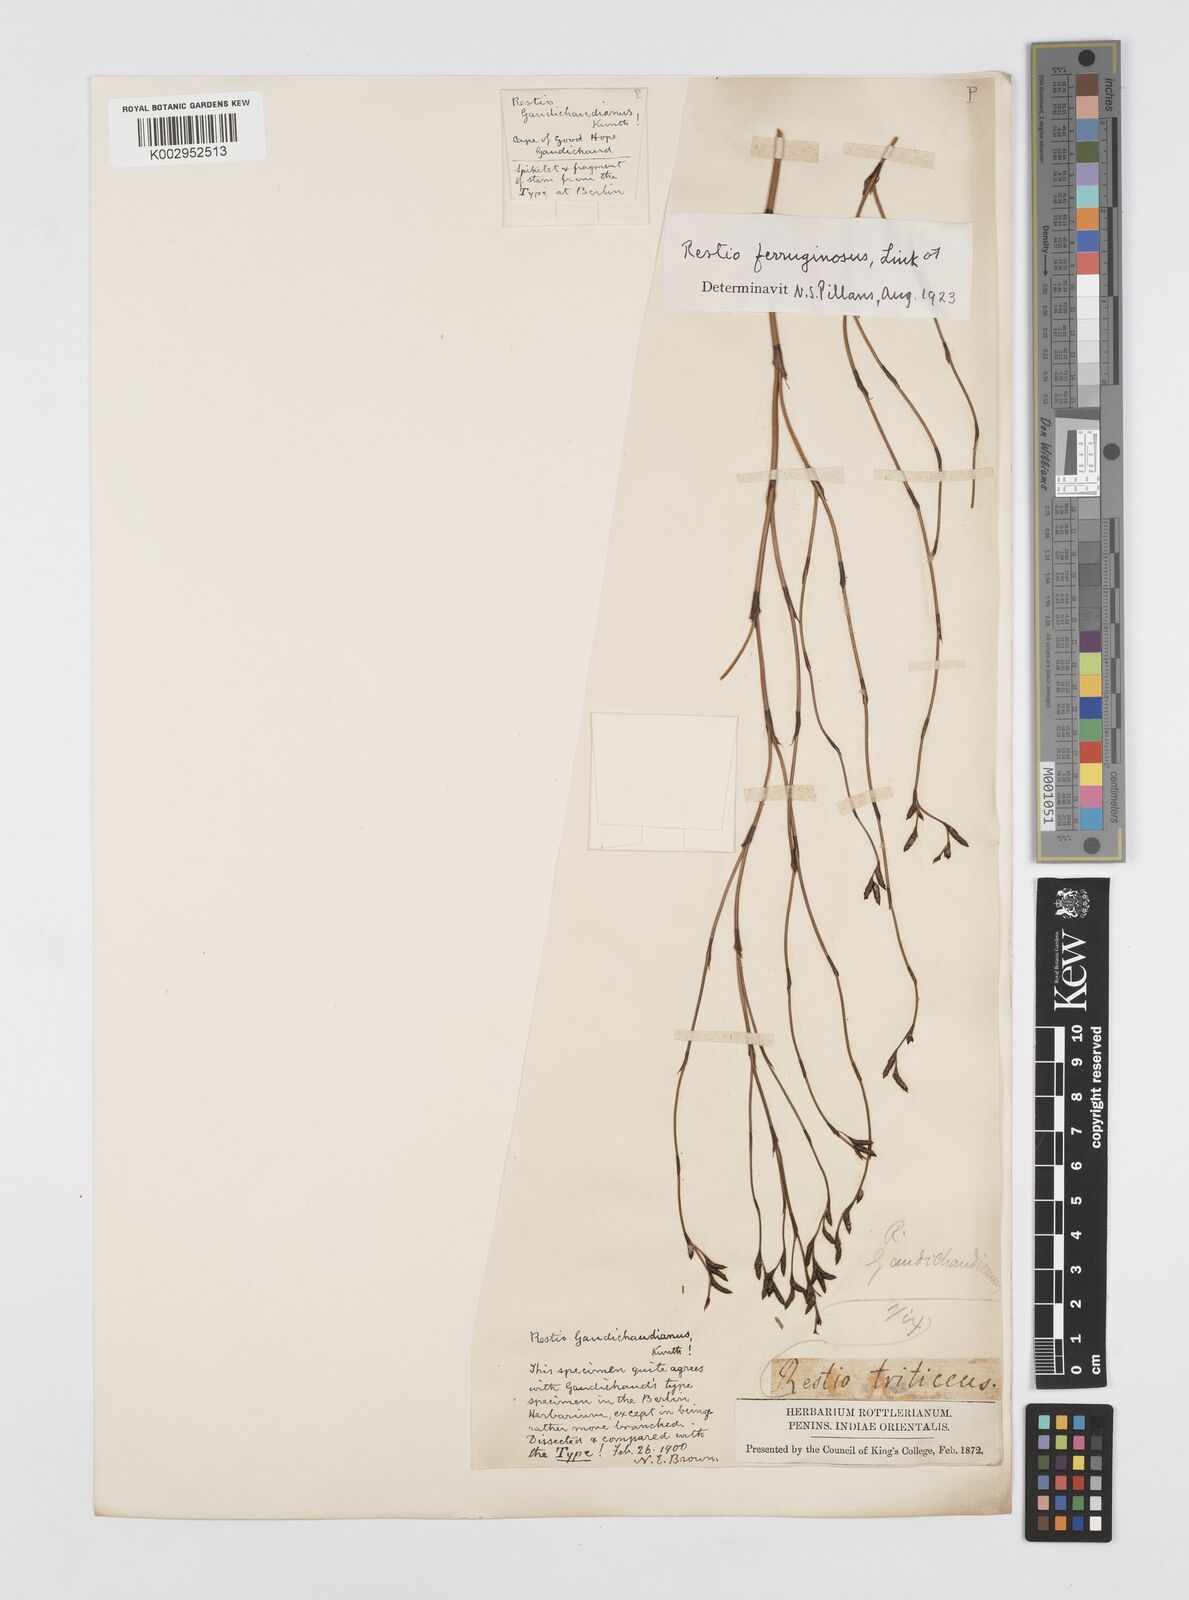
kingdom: Plantae
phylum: Tracheophyta
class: Liliopsida
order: Poales
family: Restionaceae
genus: Restio
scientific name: Restio gaudichaudianus
